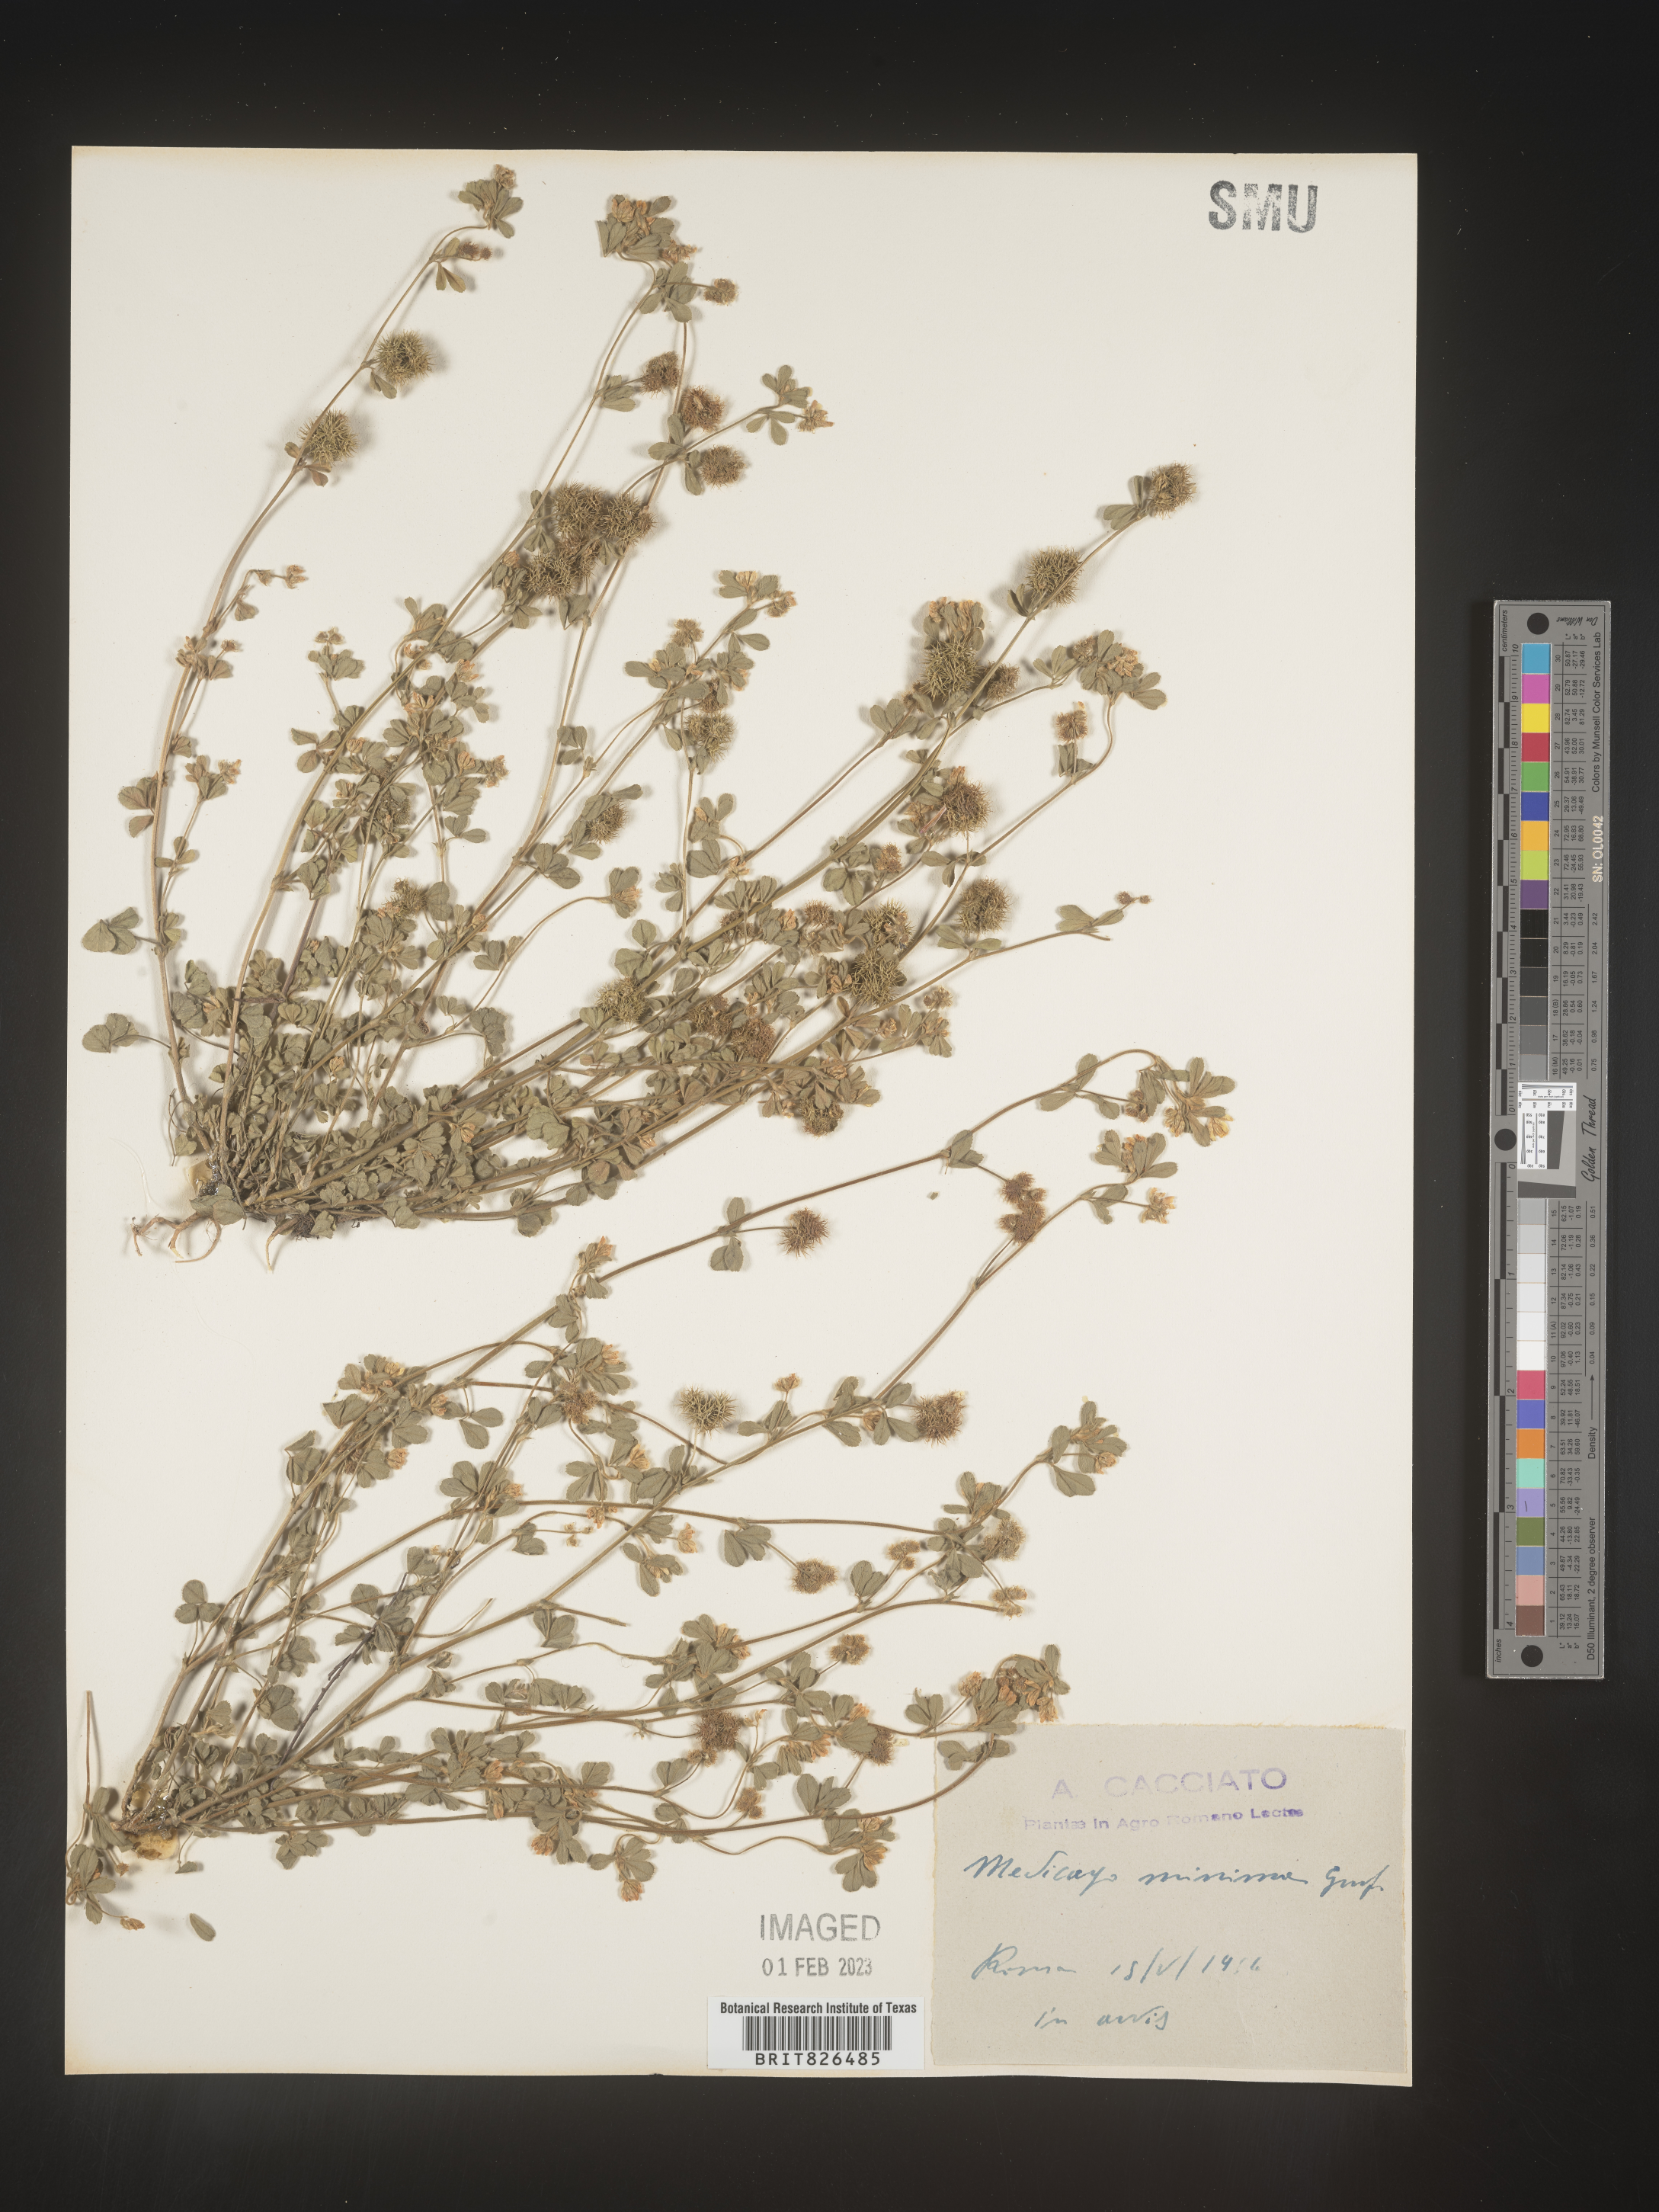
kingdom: Plantae
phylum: Tracheophyta
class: Magnoliopsida
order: Fabales
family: Fabaceae
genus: Medicago
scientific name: Medicago
